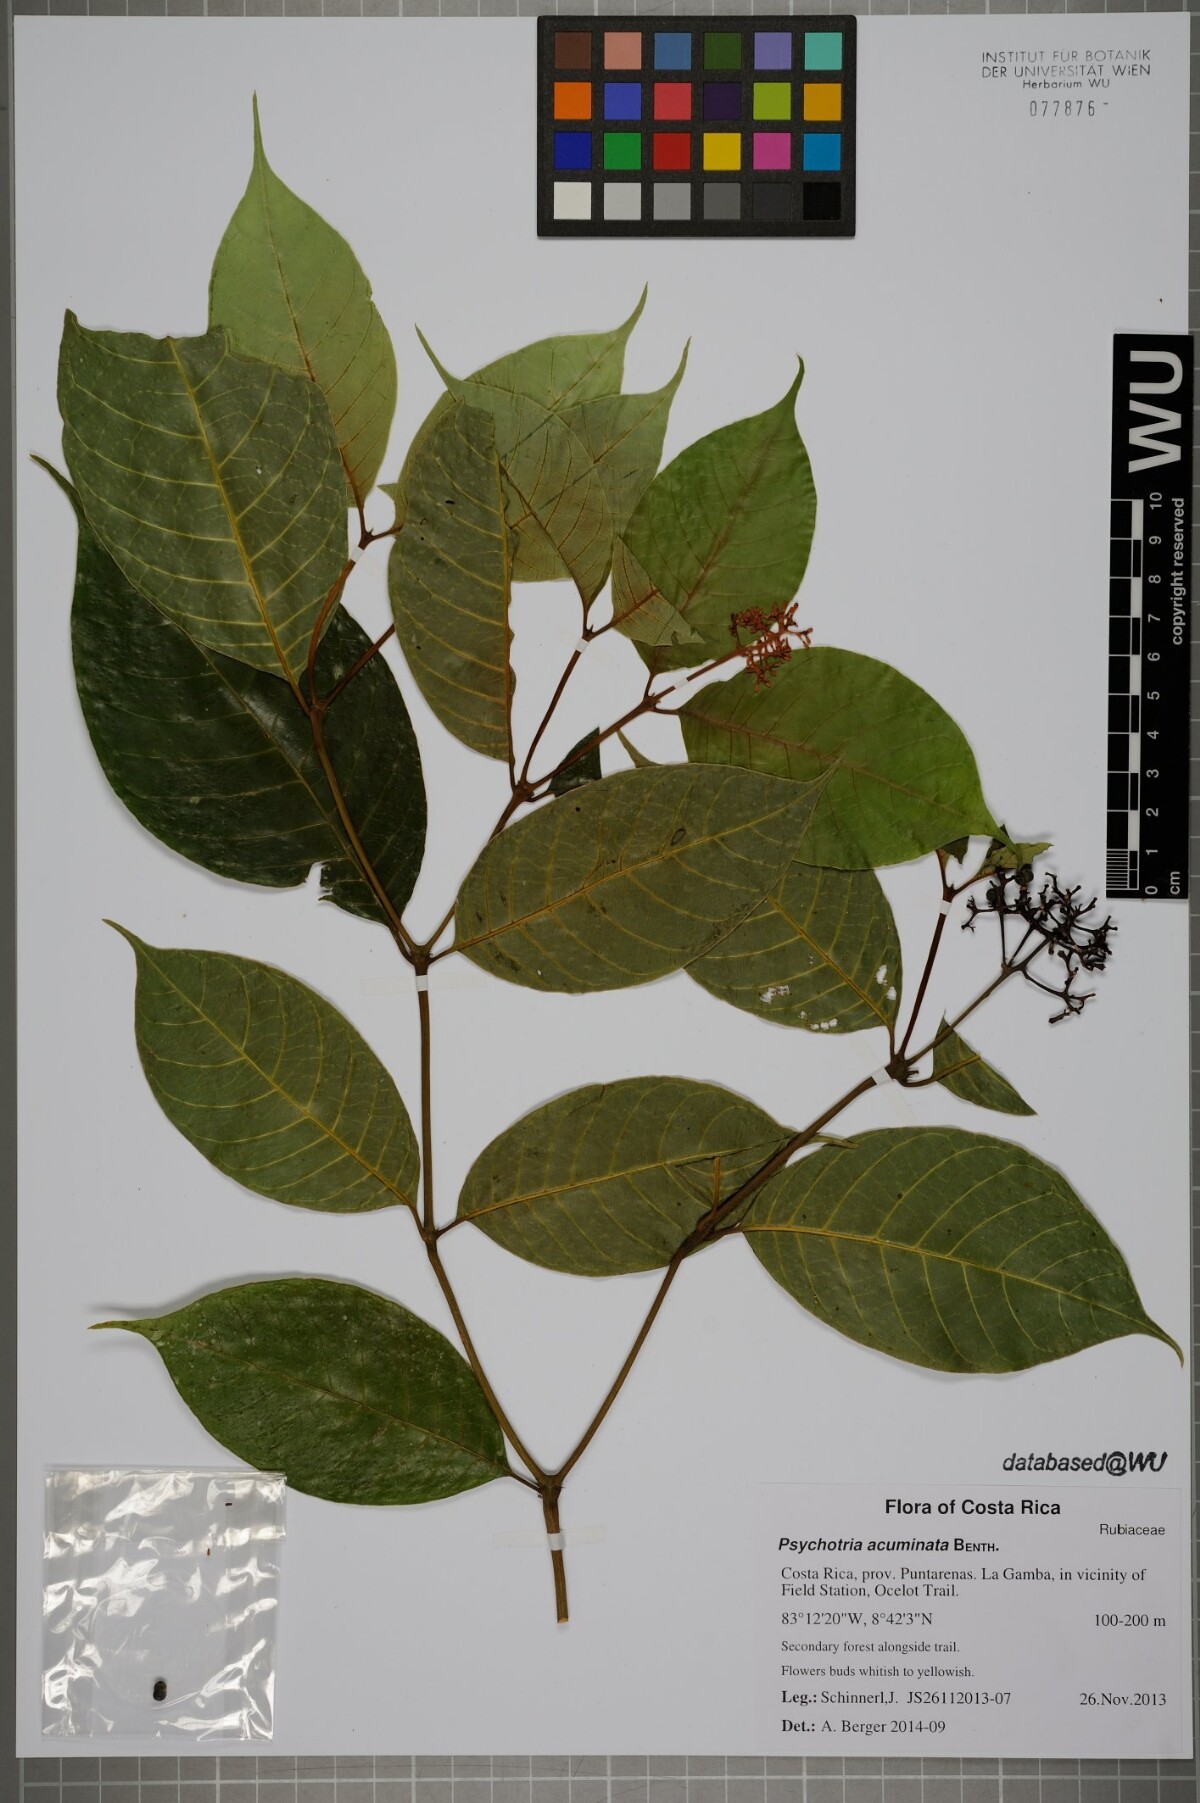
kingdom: Plantae
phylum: Tracheophyta
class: Magnoliopsida
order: Gentianales
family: Rubiaceae
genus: Palicourea
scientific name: Palicourea acuminata
